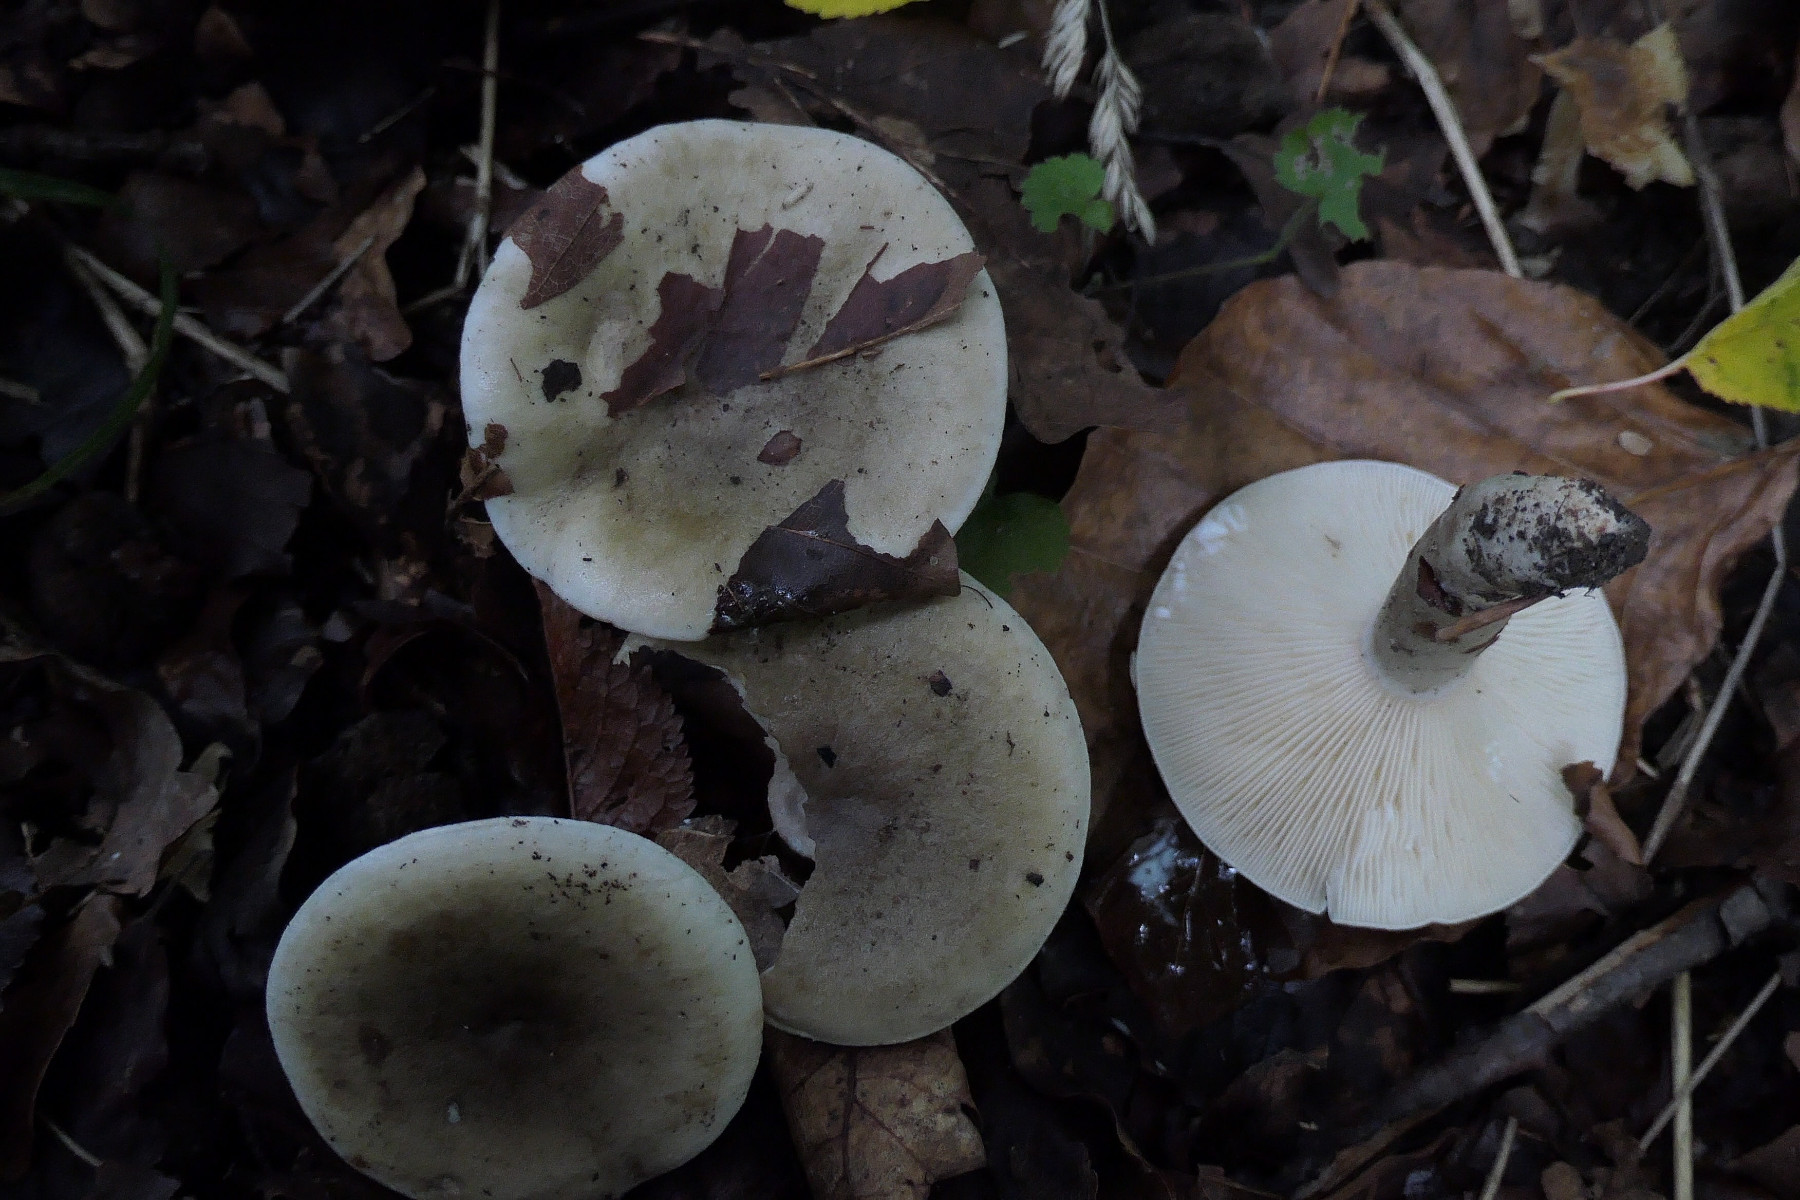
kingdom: Fungi
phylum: Basidiomycota
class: Agaricomycetes
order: Russulales
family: Russulaceae
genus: Lactarius
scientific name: Lactarius fluens
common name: lysrandet mælkehat
